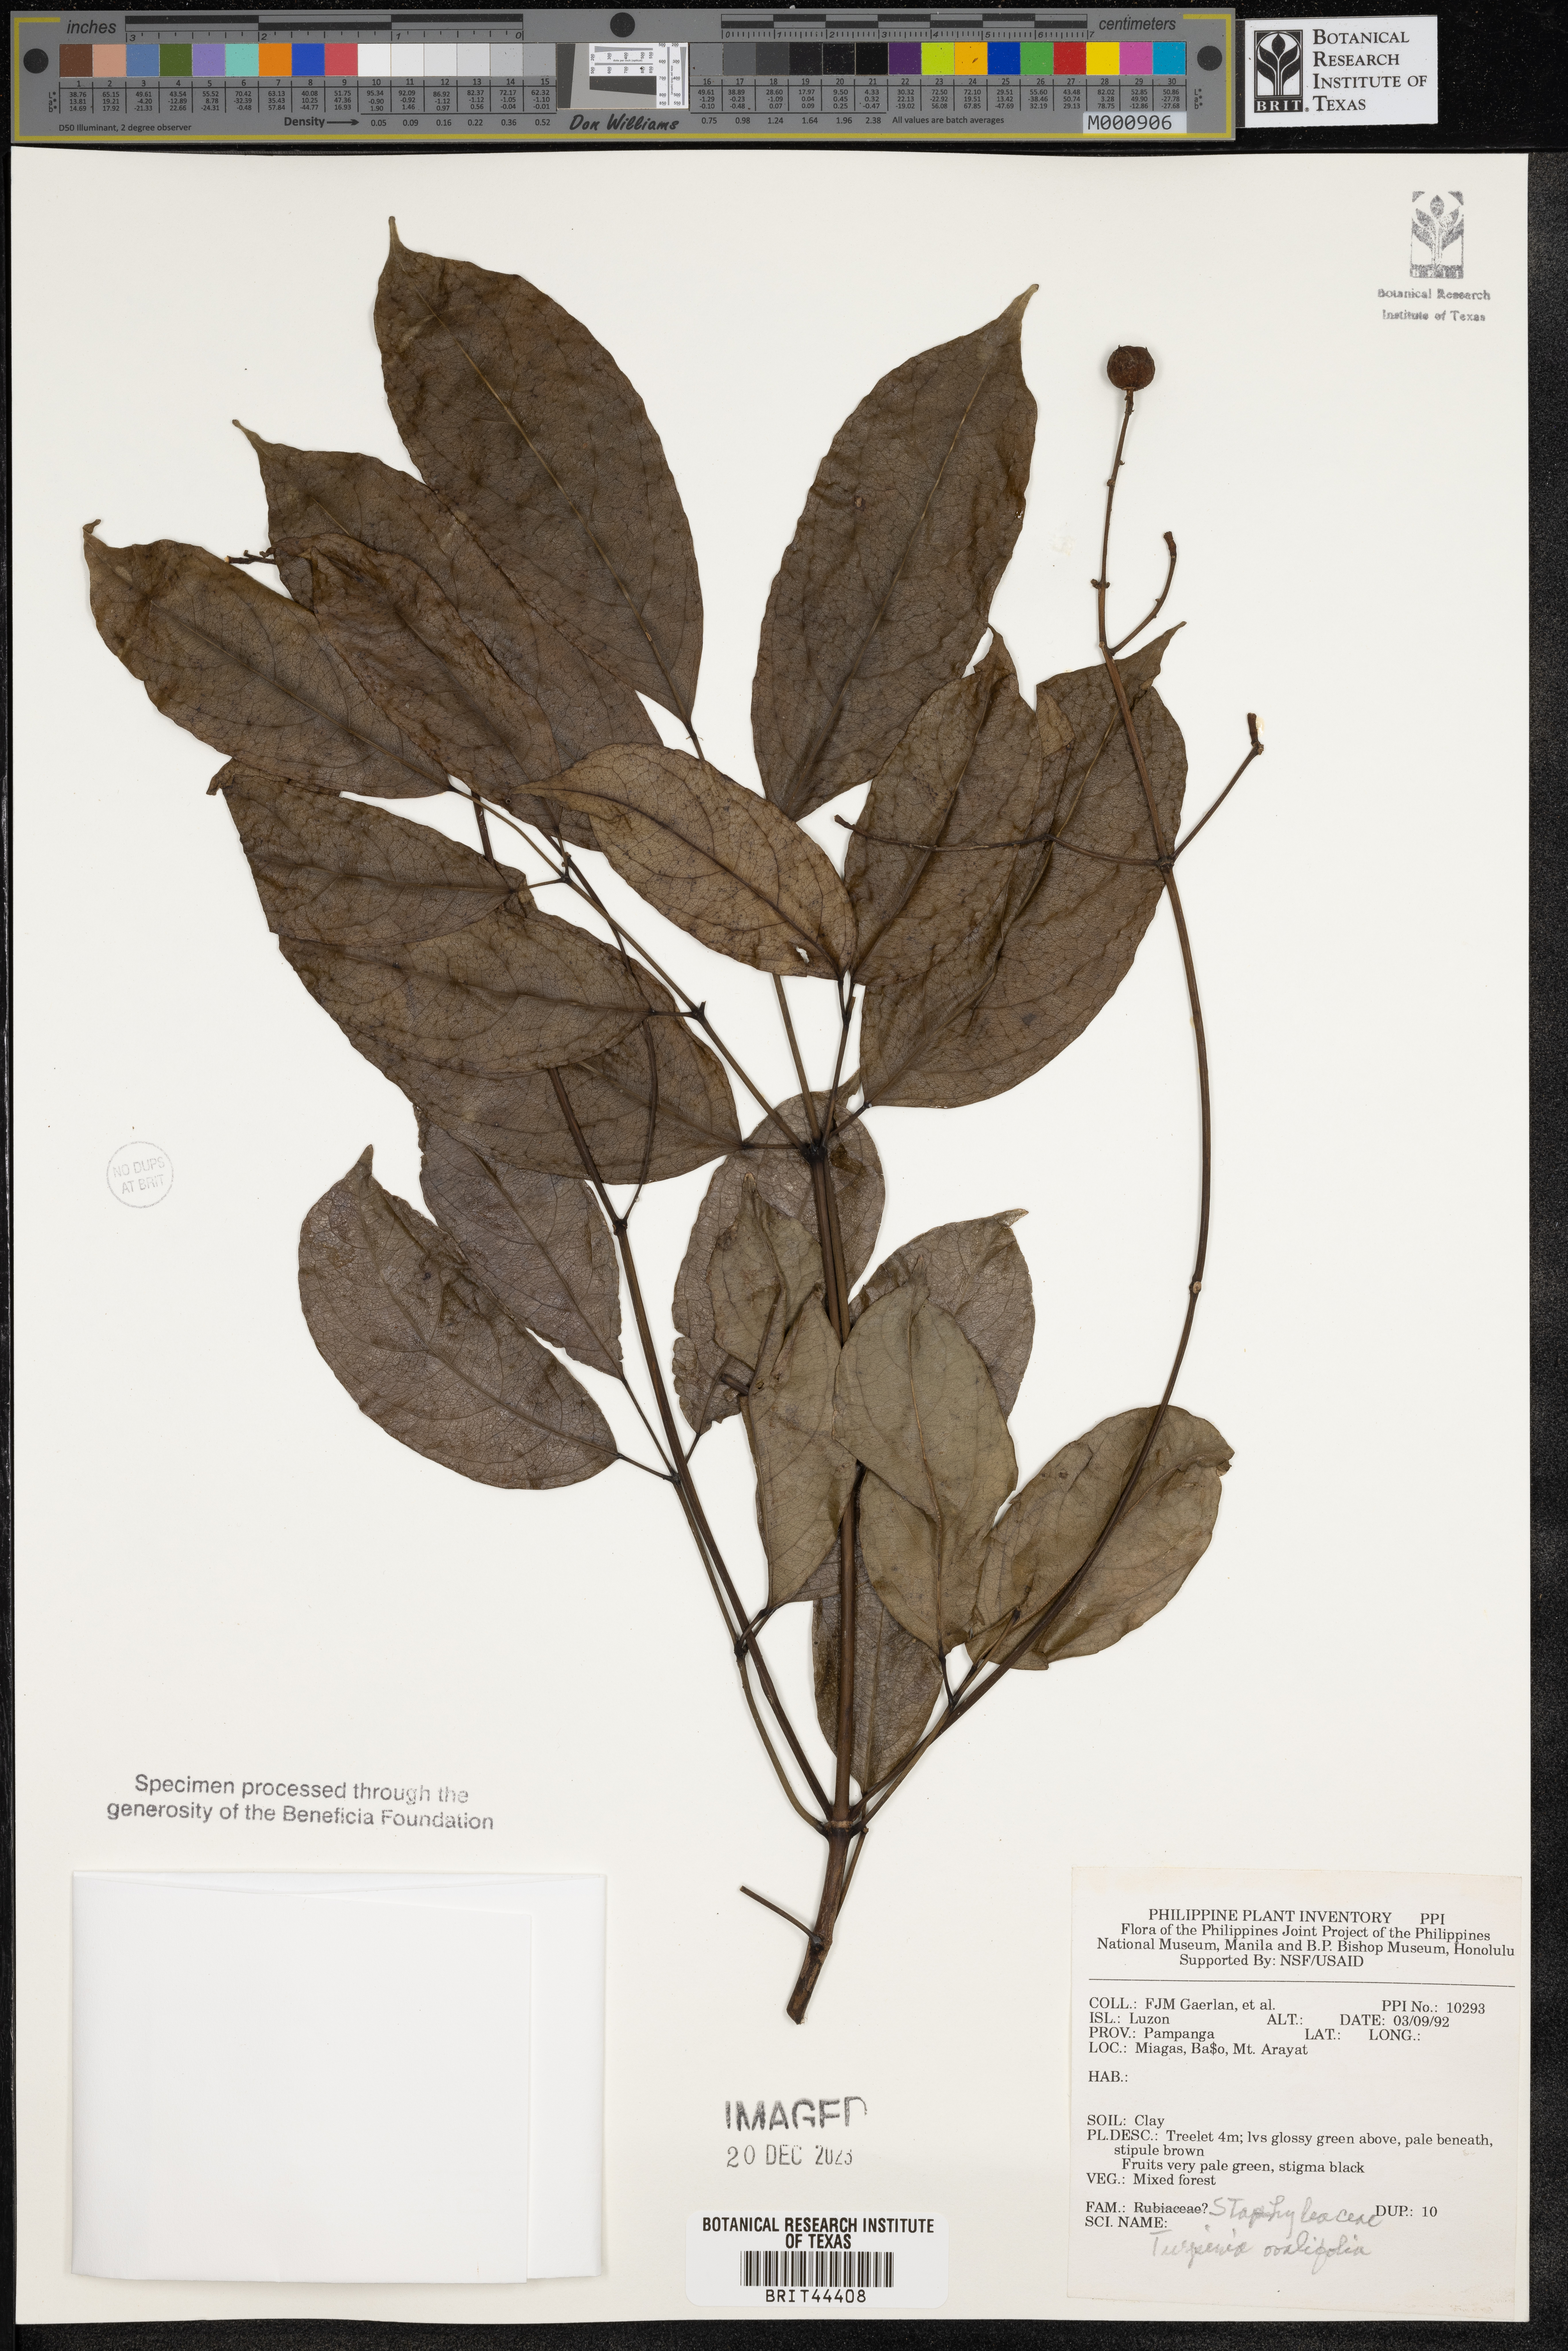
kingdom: Plantae
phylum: Tracheophyta
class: Magnoliopsida
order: Crossosomatales
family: Staphyleaceae
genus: Dalrympelea
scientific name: Dalrympelea trifoliata
